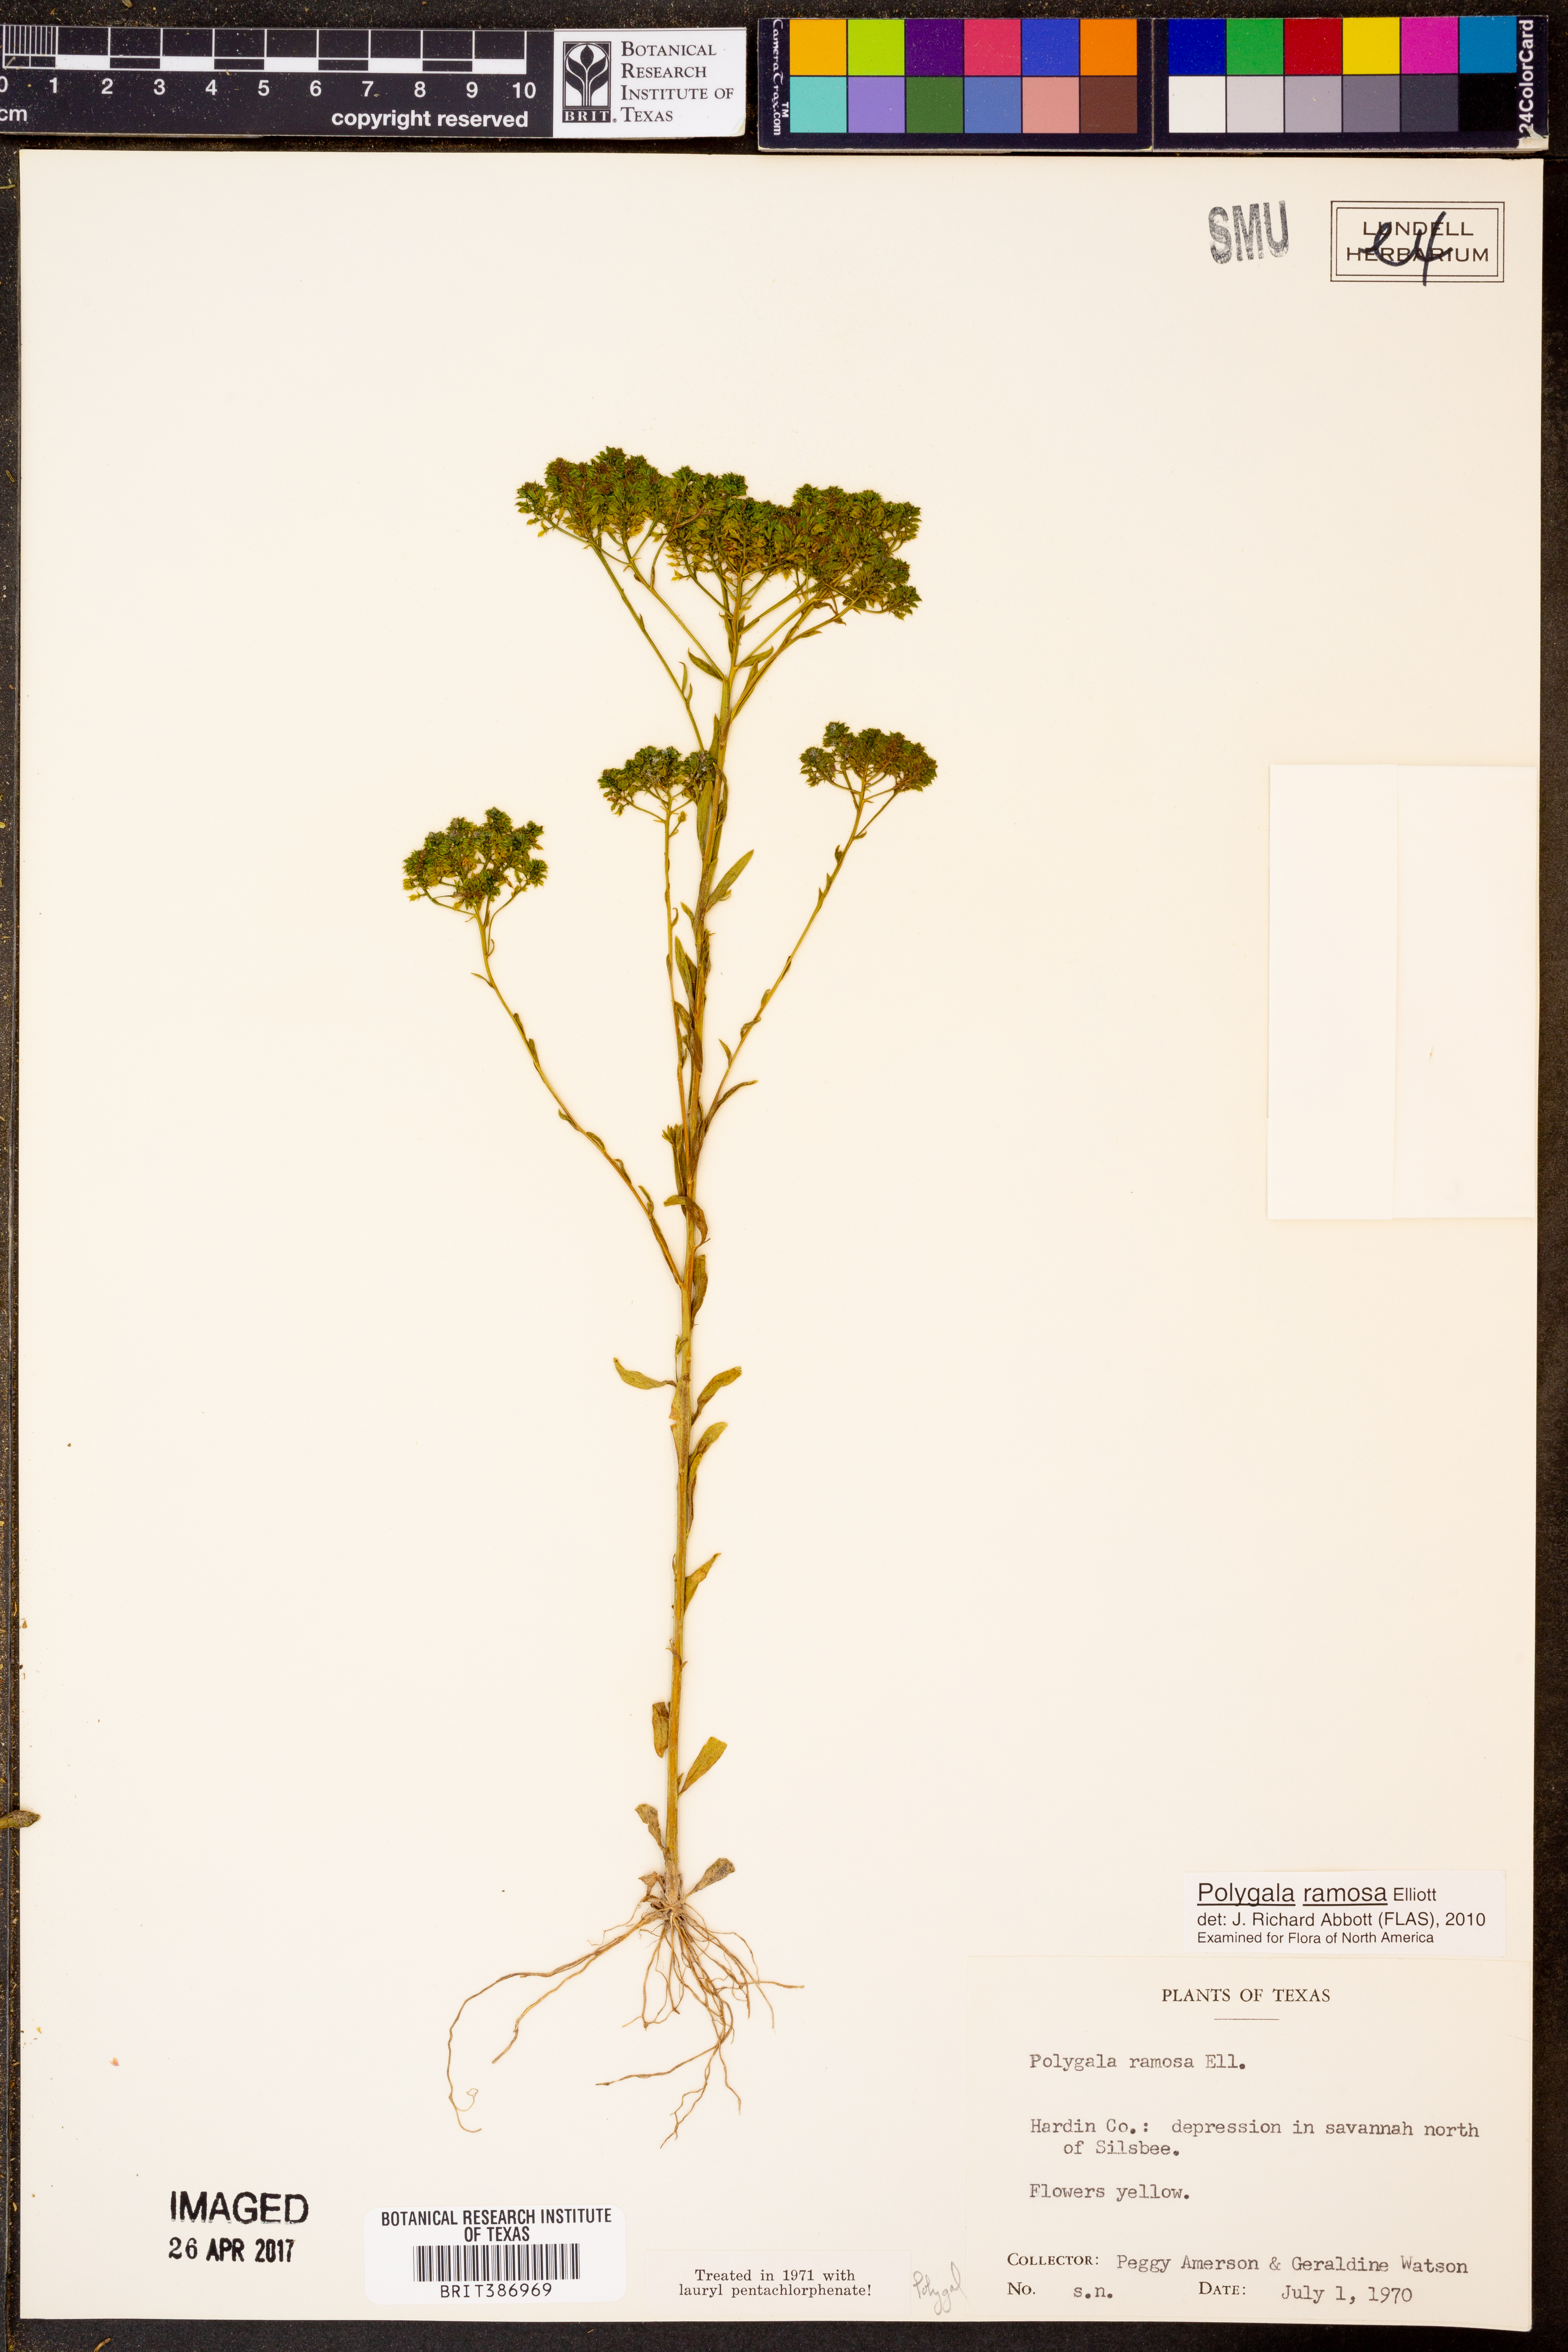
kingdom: Plantae
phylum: Tracheophyta
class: Magnoliopsida
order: Fabales
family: Polygalaceae
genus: Polygala
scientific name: Polygala ramosa
